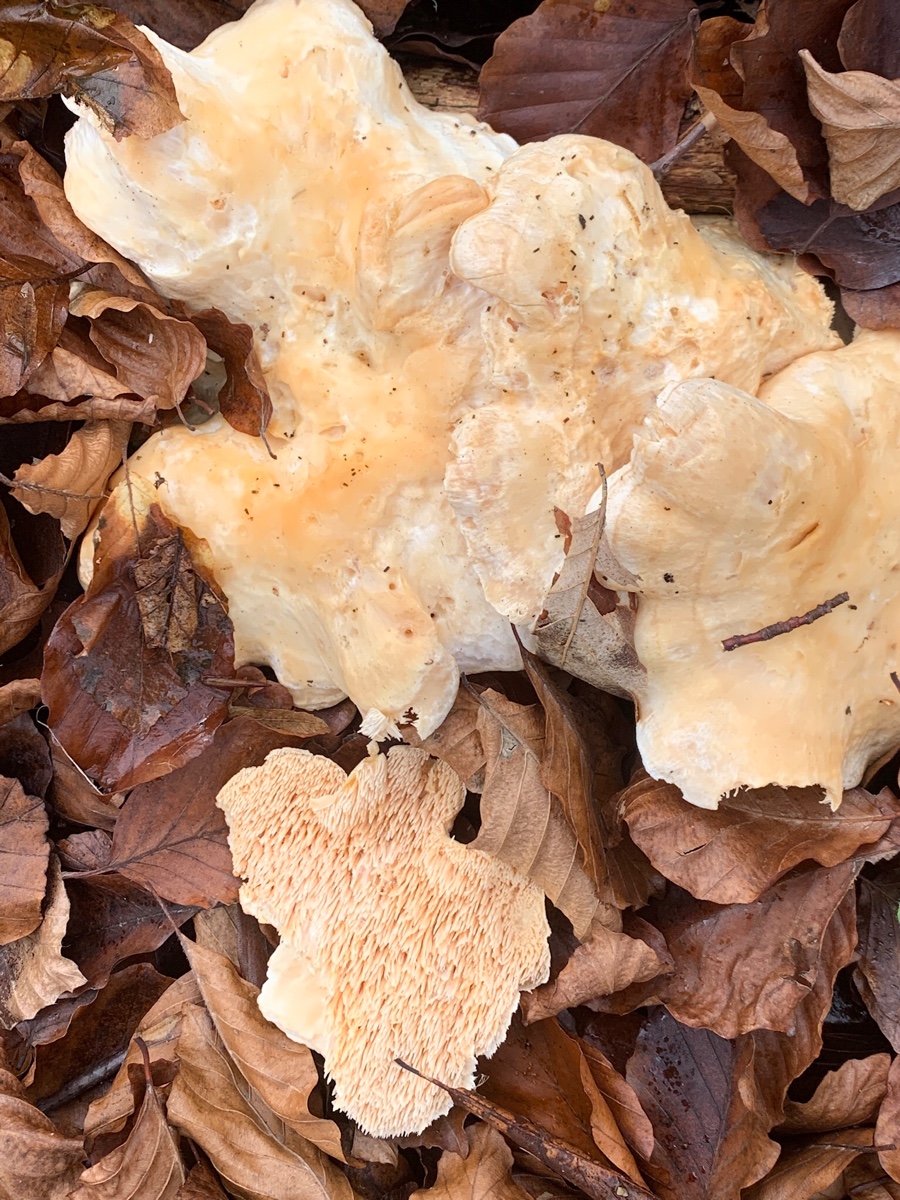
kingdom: Fungi
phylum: Basidiomycota
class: Agaricomycetes
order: Cantharellales
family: Hydnaceae
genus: Hydnum
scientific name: Hydnum repandum
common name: almindelig pigsvamp
